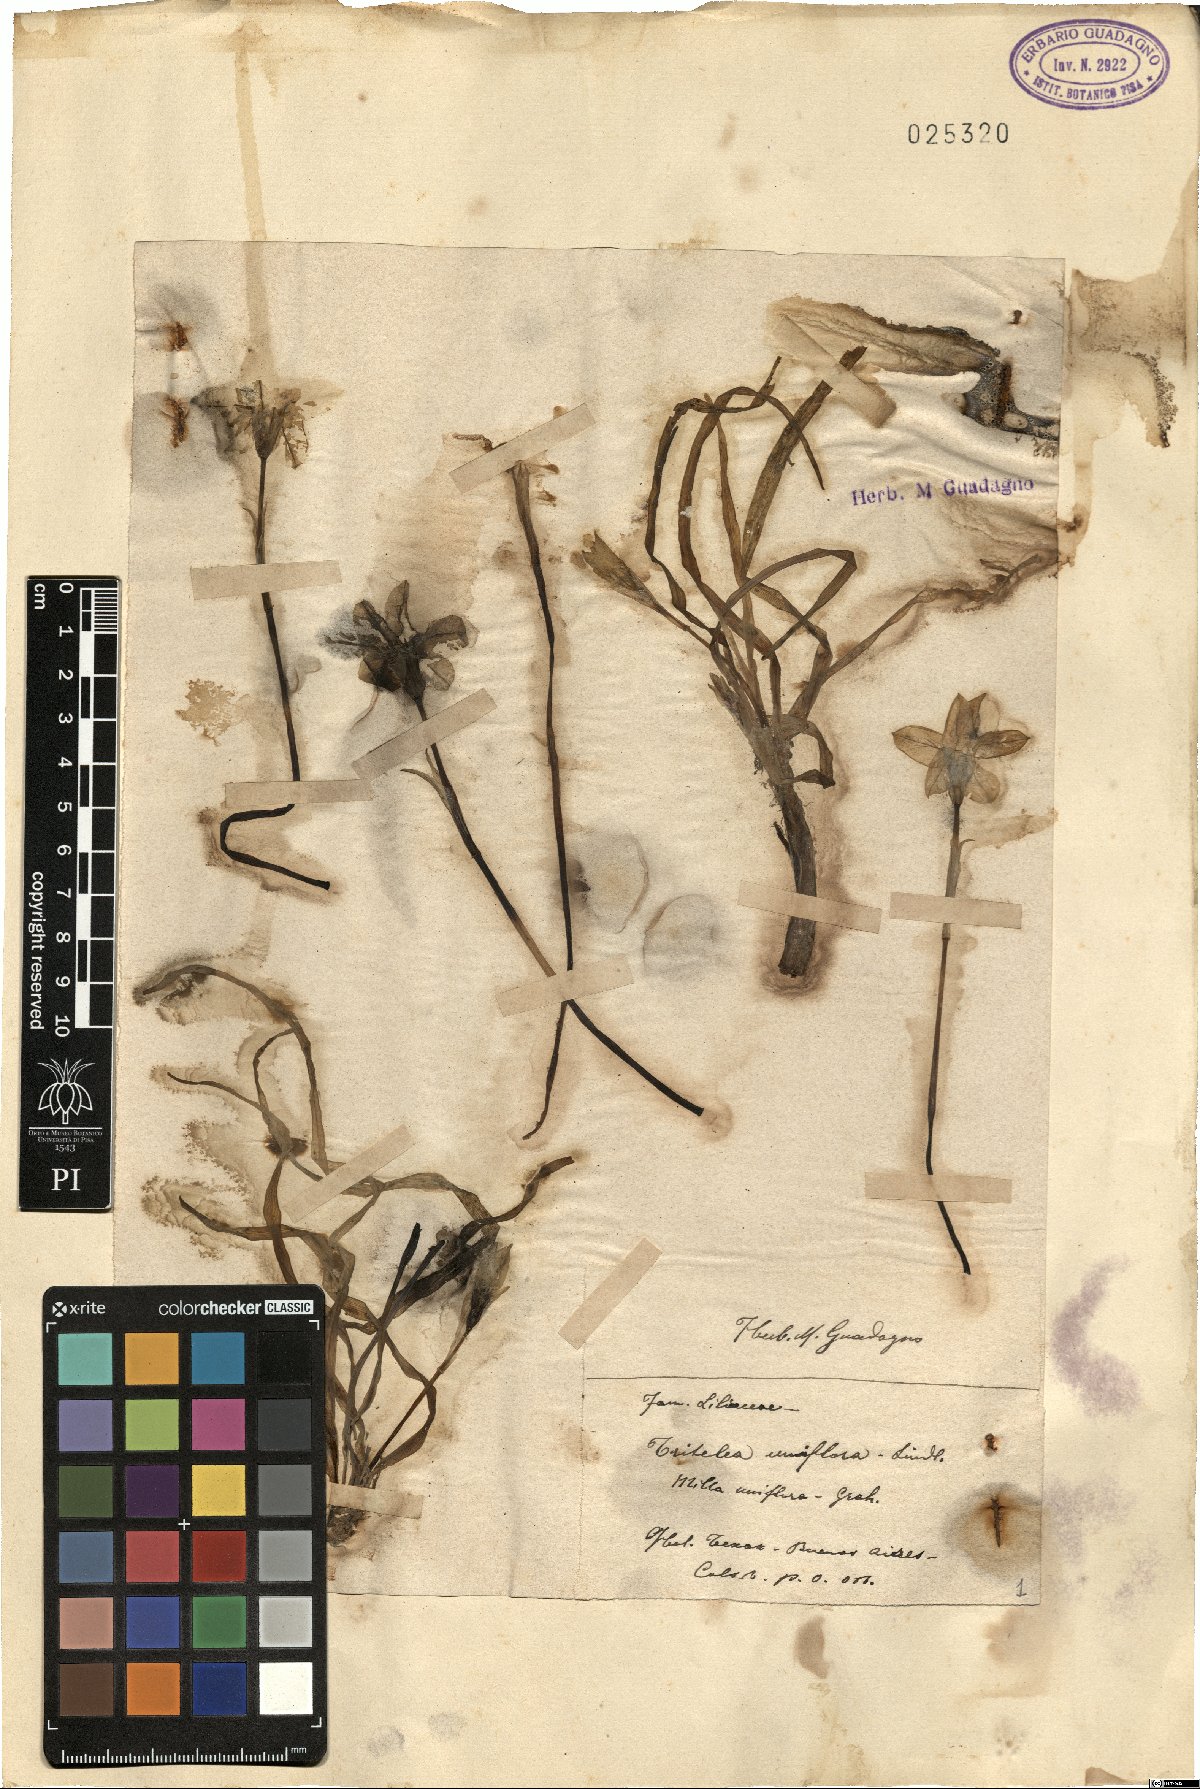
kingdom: Plantae
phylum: Tracheophyta
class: Liliopsida
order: Asparagales
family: Amaryllidaceae
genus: Ipheion
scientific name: Ipheion uniflorum
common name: Spring starflower
